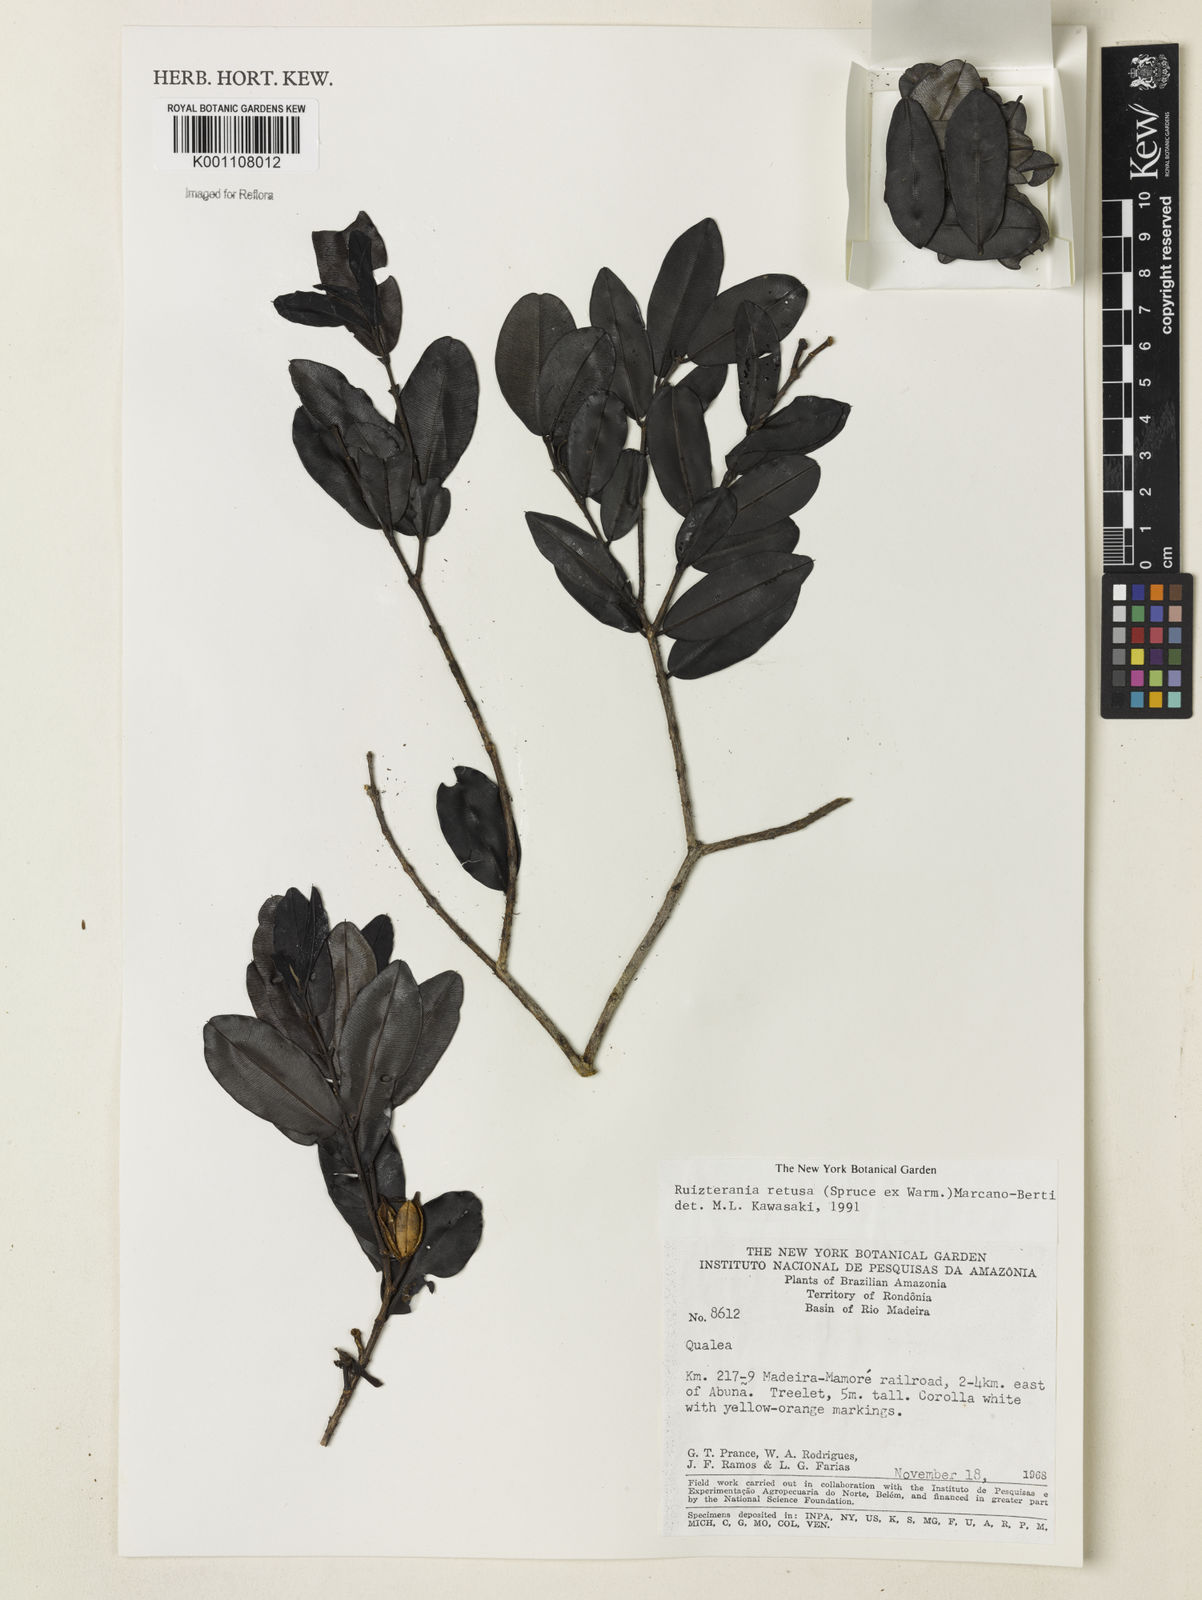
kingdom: Plantae
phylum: Tracheophyta
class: Magnoliopsida
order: Myrtales
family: Vochysiaceae
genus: Ruizterania
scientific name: Ruizterania retusa
